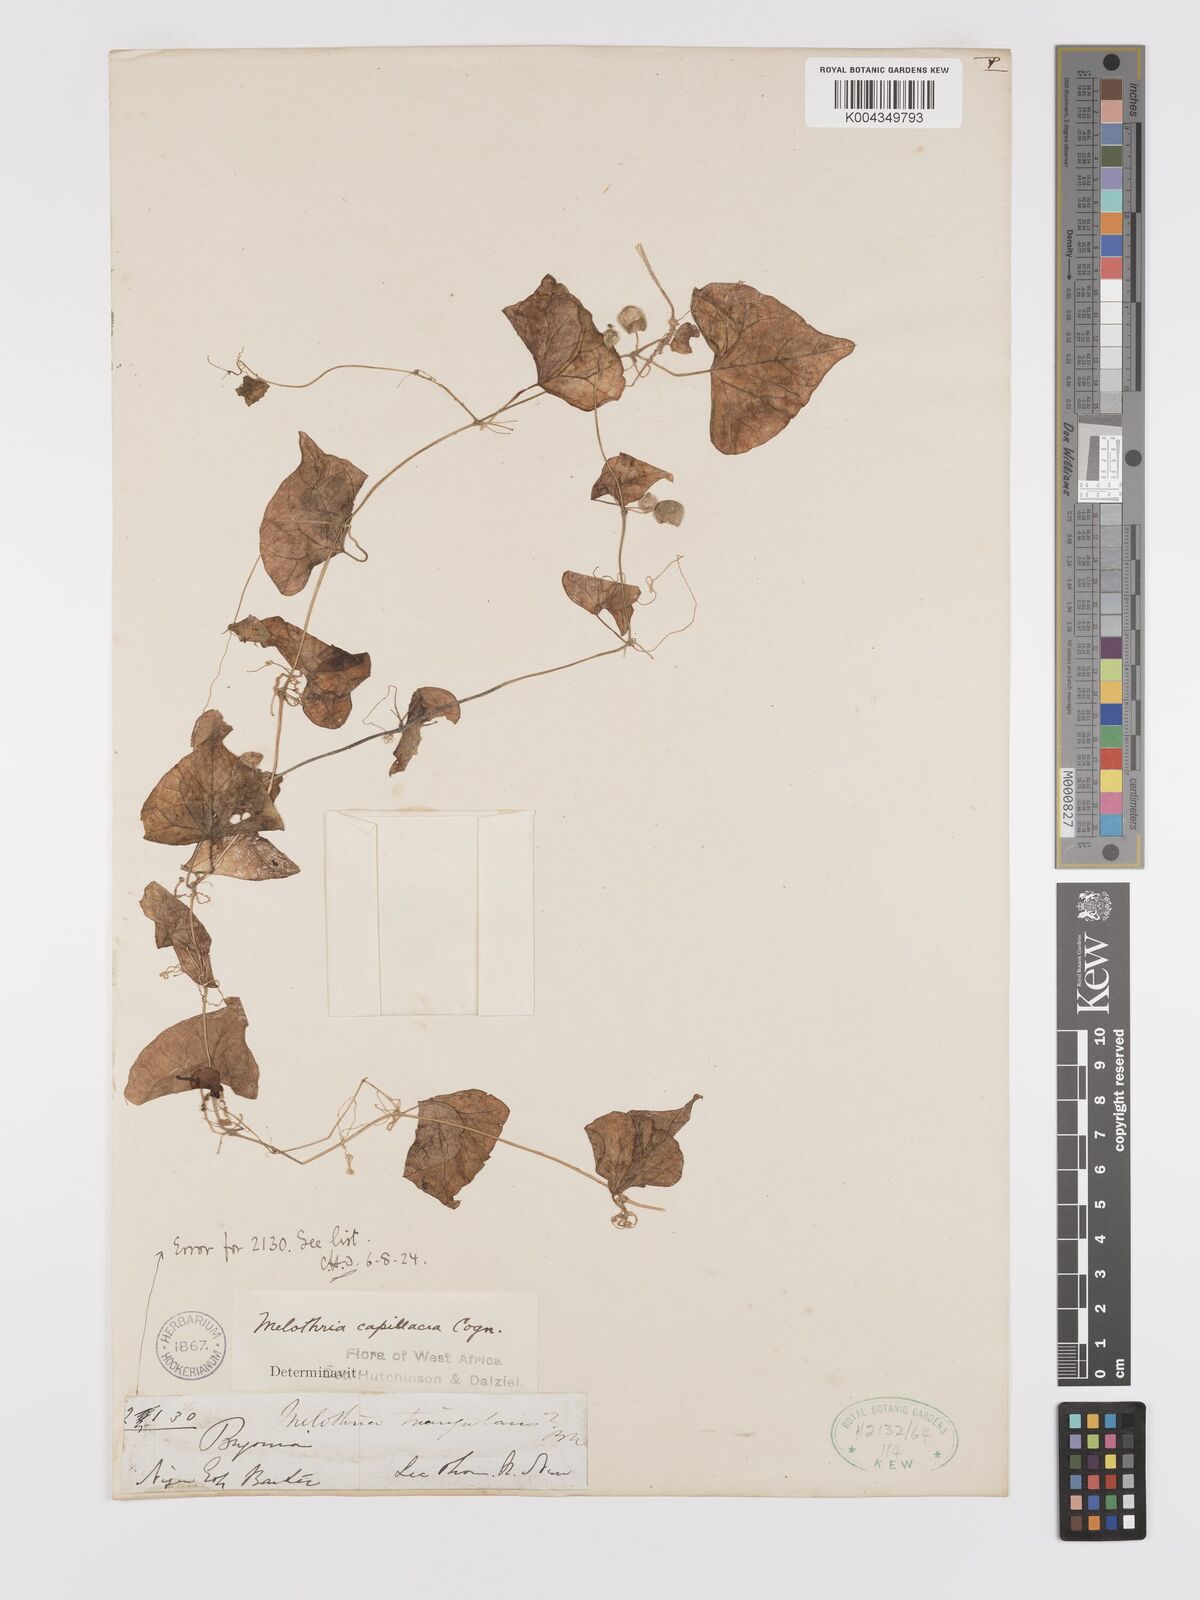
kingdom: Plantae
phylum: Tracheophyta
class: Magnoliopsida
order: Cucurbitales
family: Cucurbitaceae
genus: Zehneria
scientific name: Zehneria gilletii
